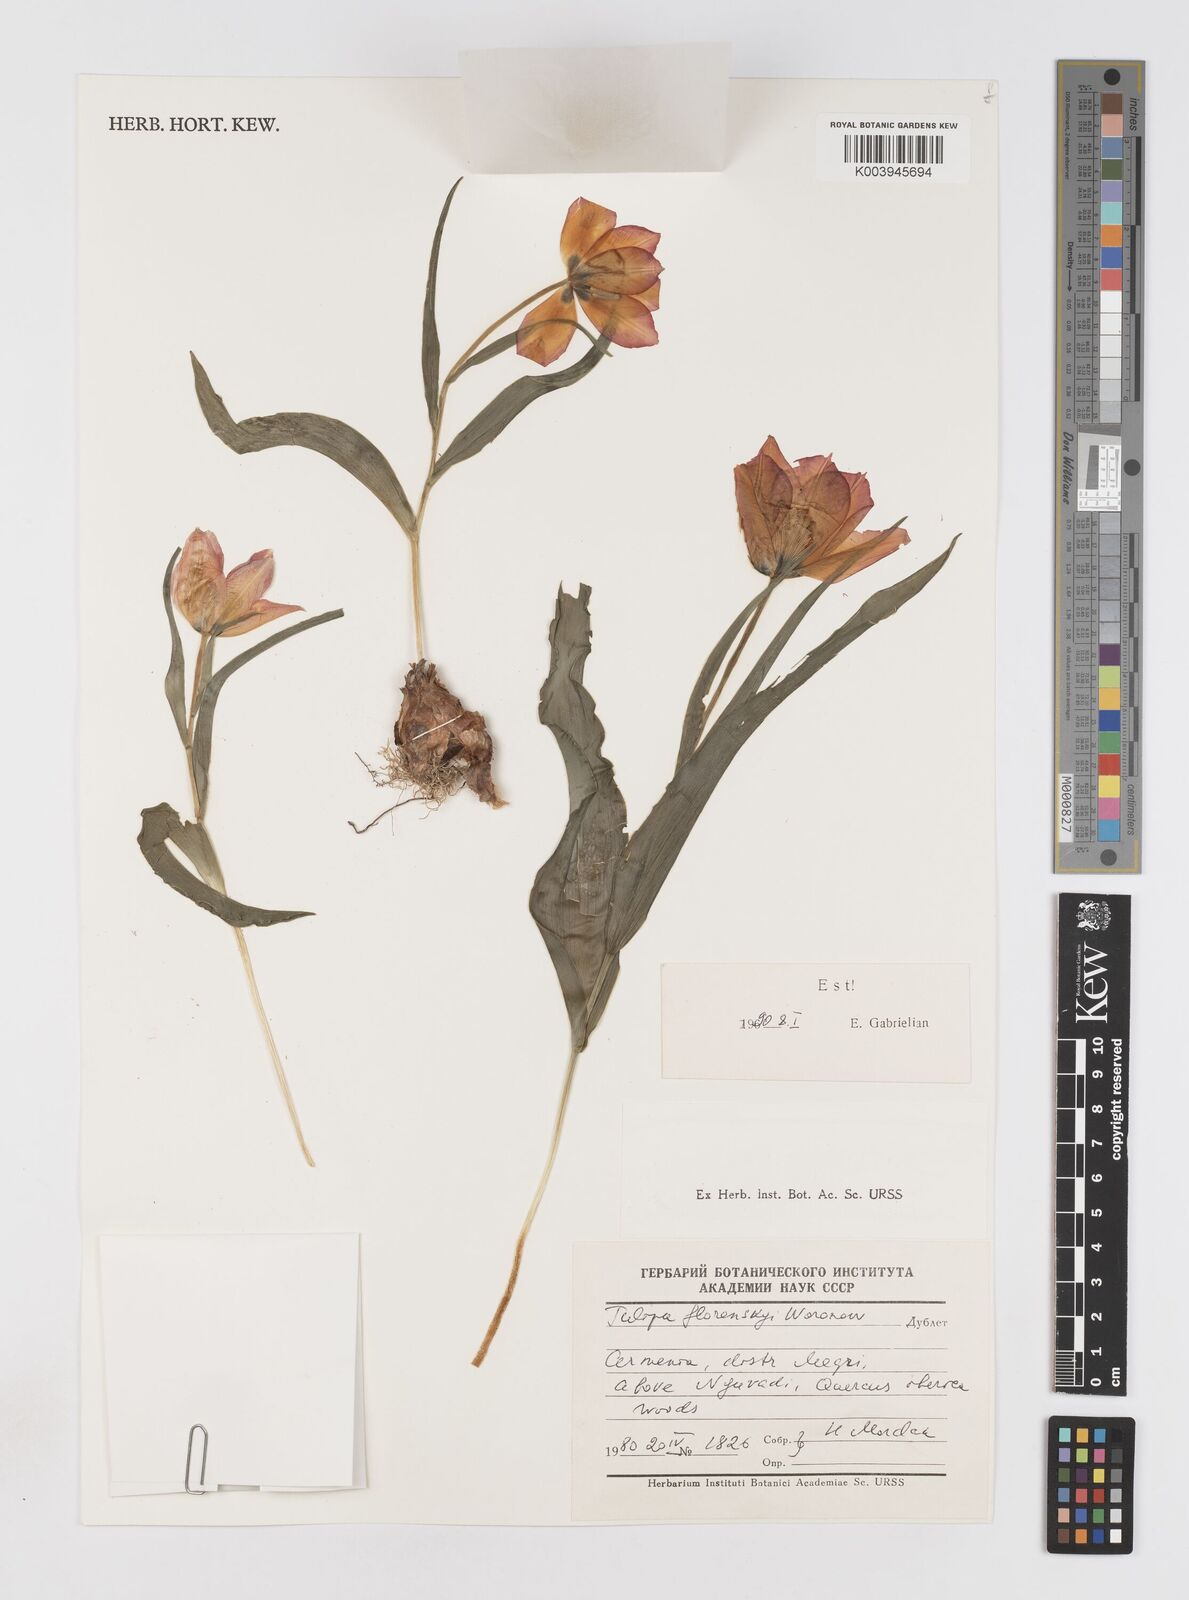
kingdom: Plantae
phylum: Tracheophyta
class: Liliopsida
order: Liliales
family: Liliaceae
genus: Tulipa
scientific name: Tulipa armena
